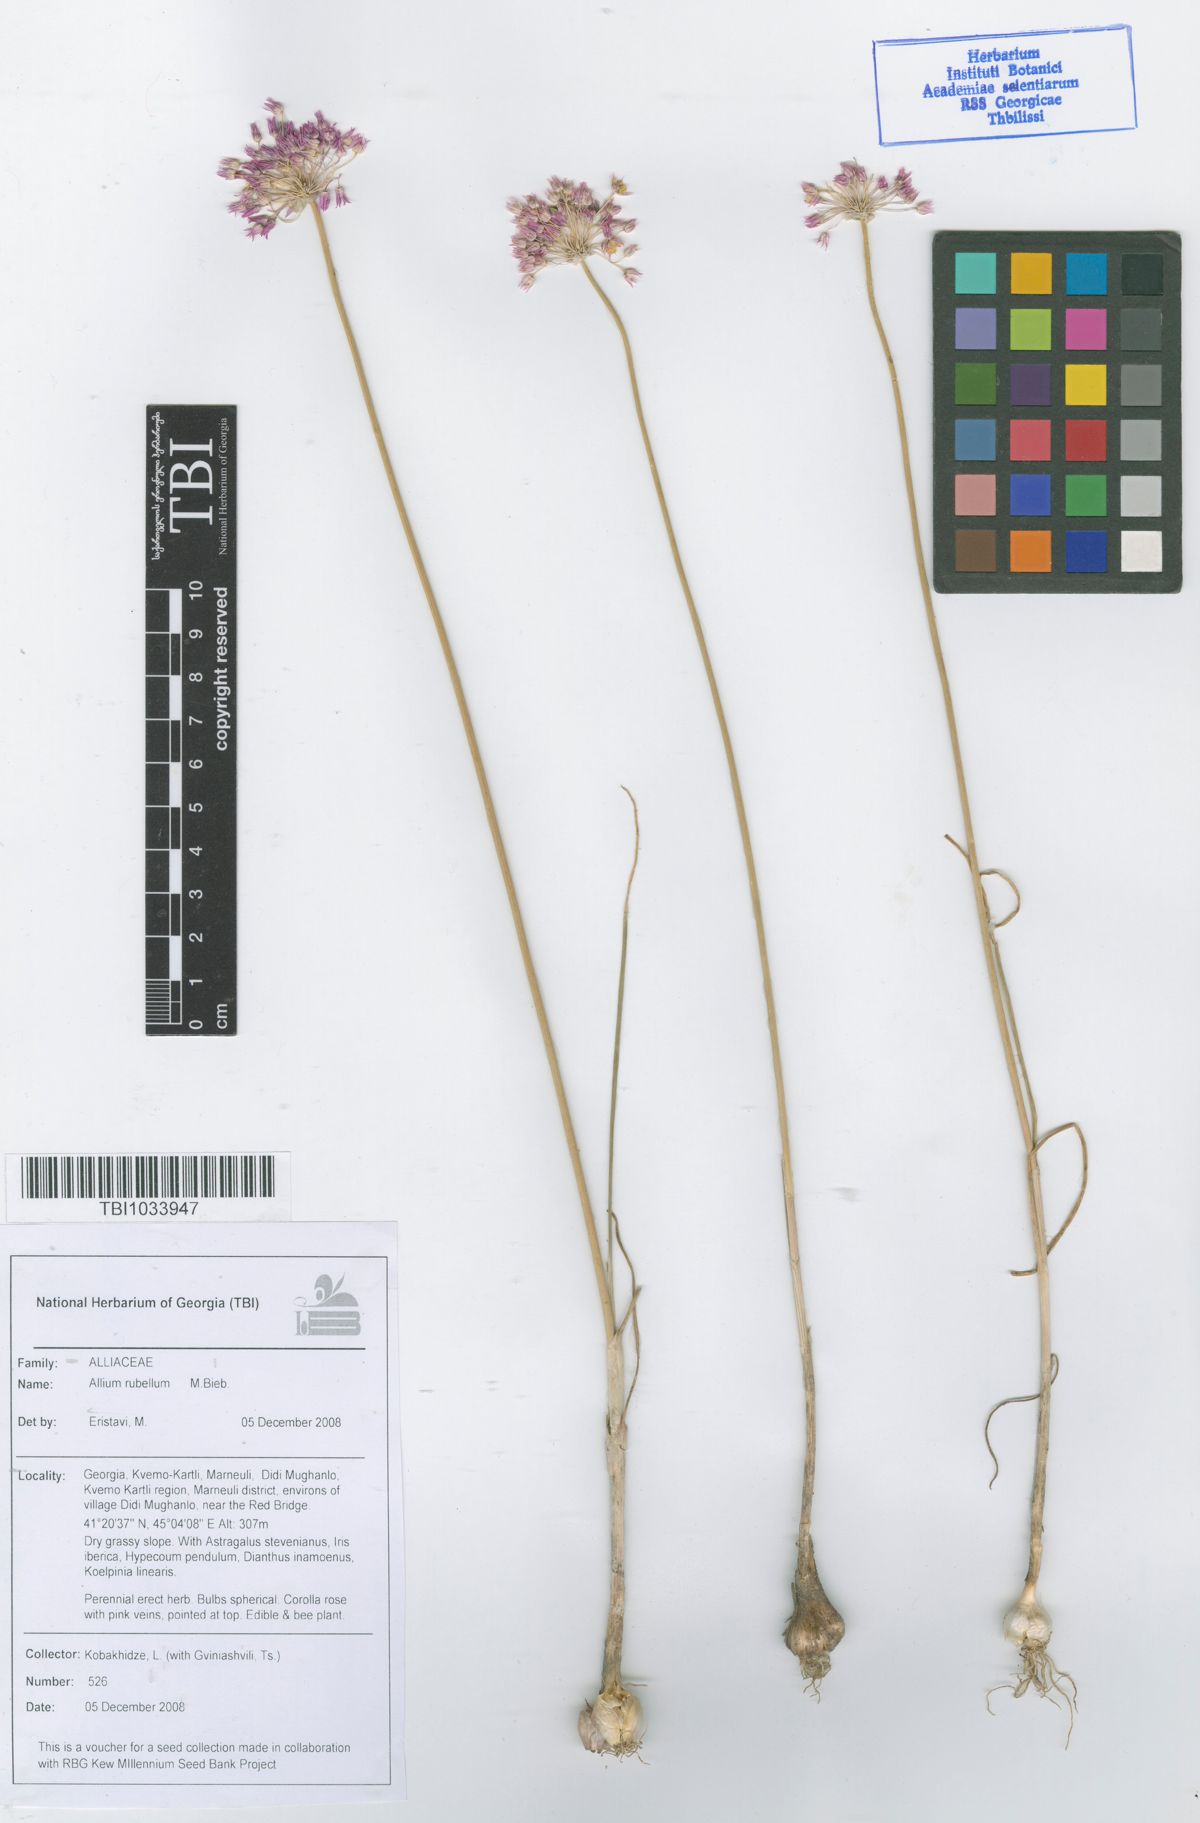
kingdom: Plantae
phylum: Tracheophyta
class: Liliopsida
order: Asparagales
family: Amaryllidaceae
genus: Allium
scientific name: Allium rubellum
